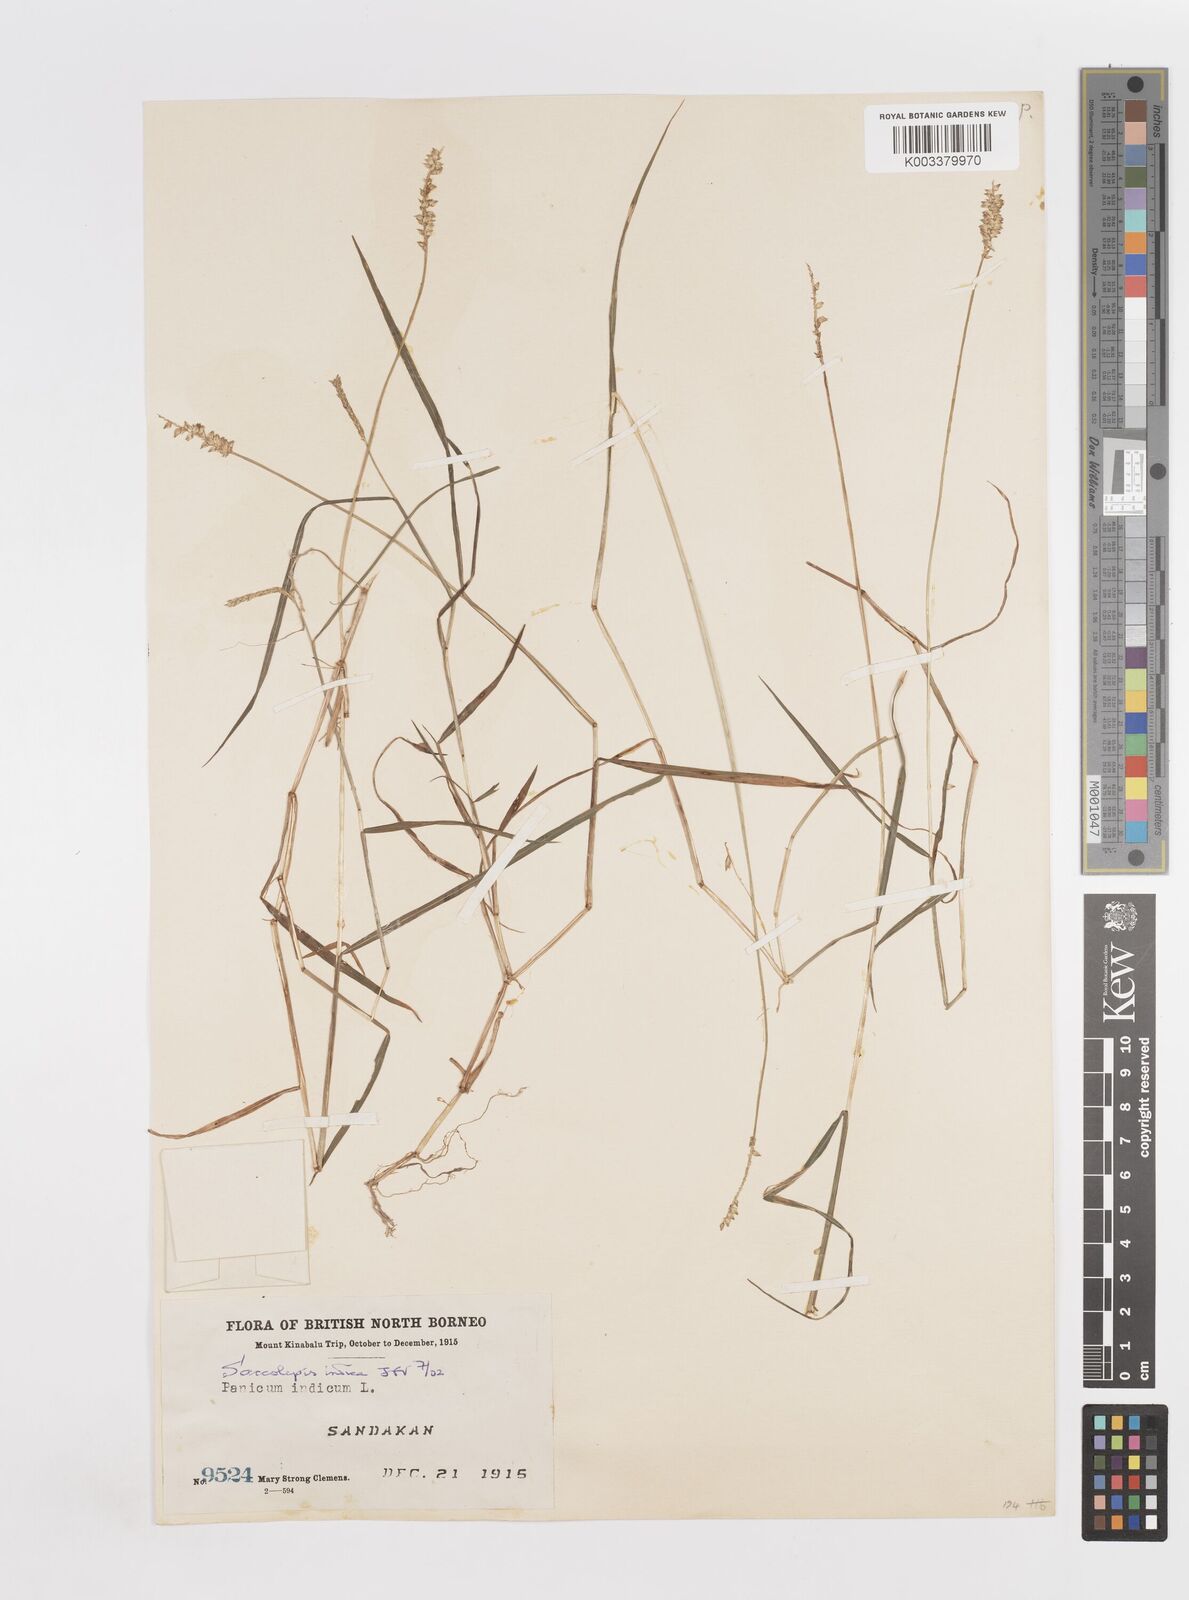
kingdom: Plantae
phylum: Tracheophyta
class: Liliopsida
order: Poales
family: Poaceae
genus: Sacciolepis
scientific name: Sacciolepis indica
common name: Glenwoodgrass
